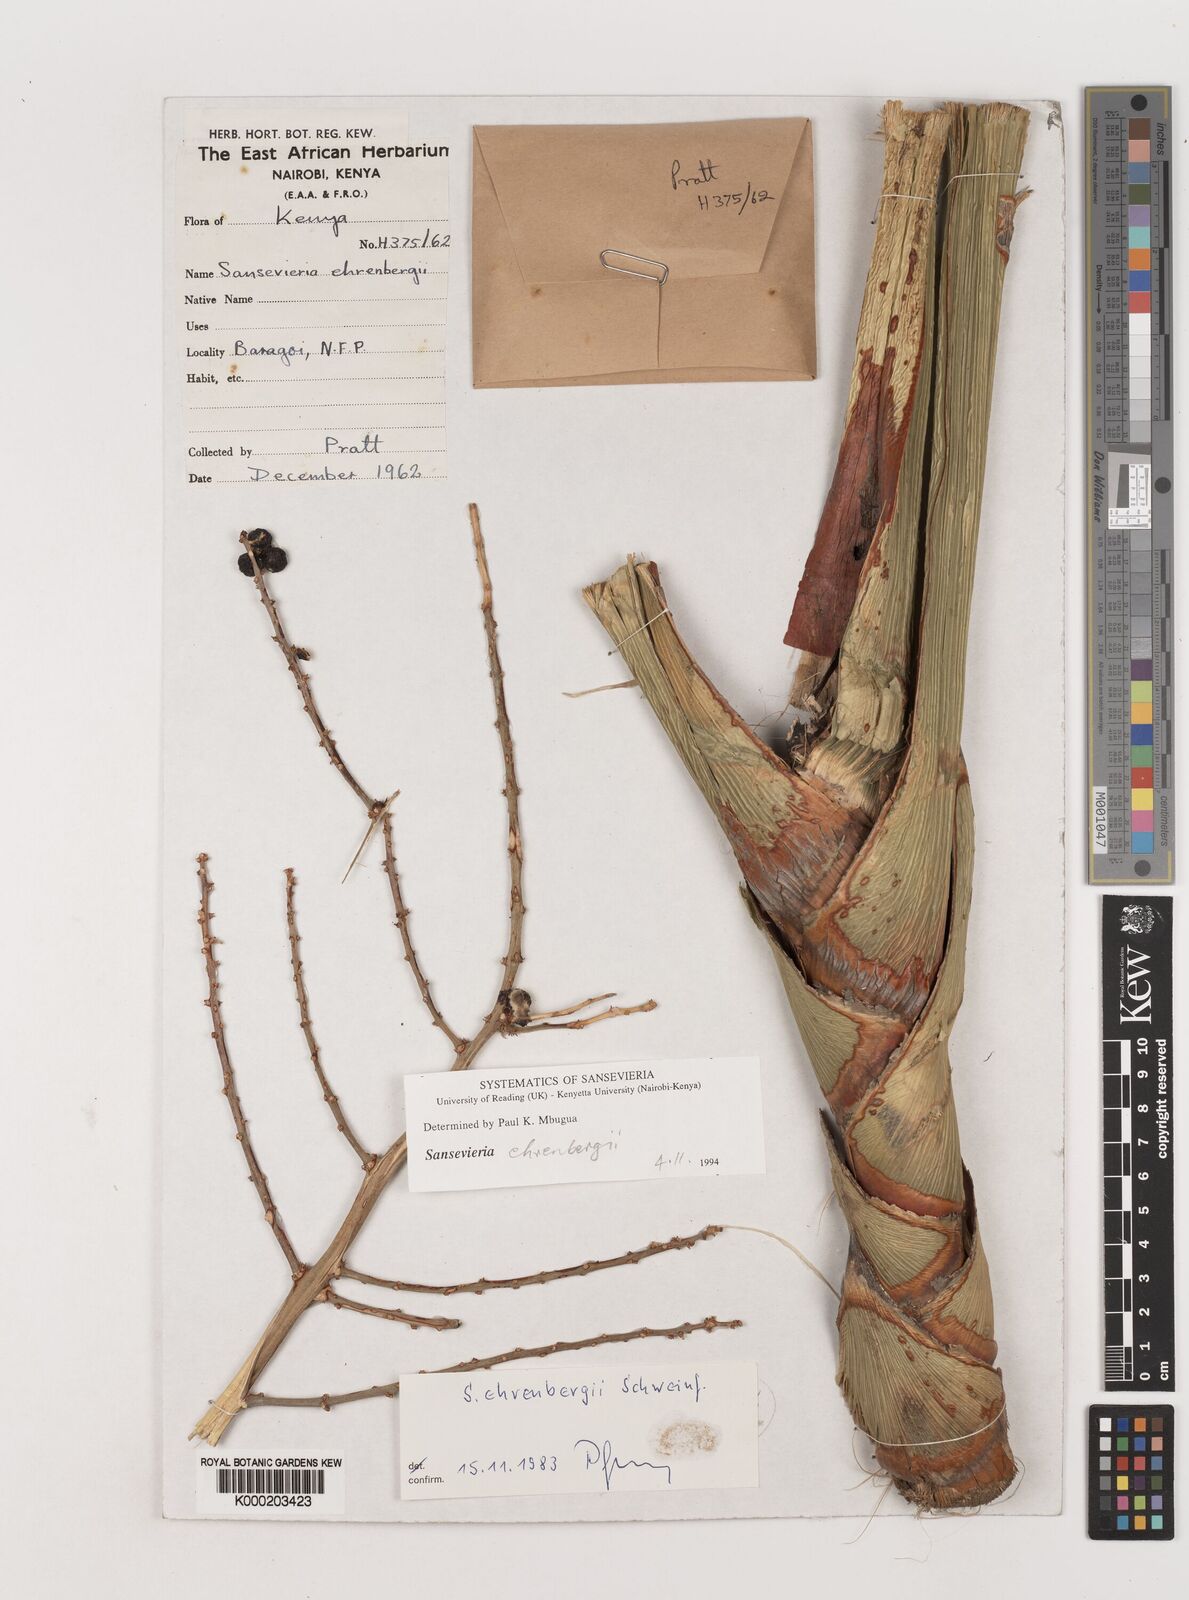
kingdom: Plantae
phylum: Tracheophyta
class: Liliopsida
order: Asparagales
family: Asparagaceae
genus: Dracaena
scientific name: Dracaena hanningtonii
